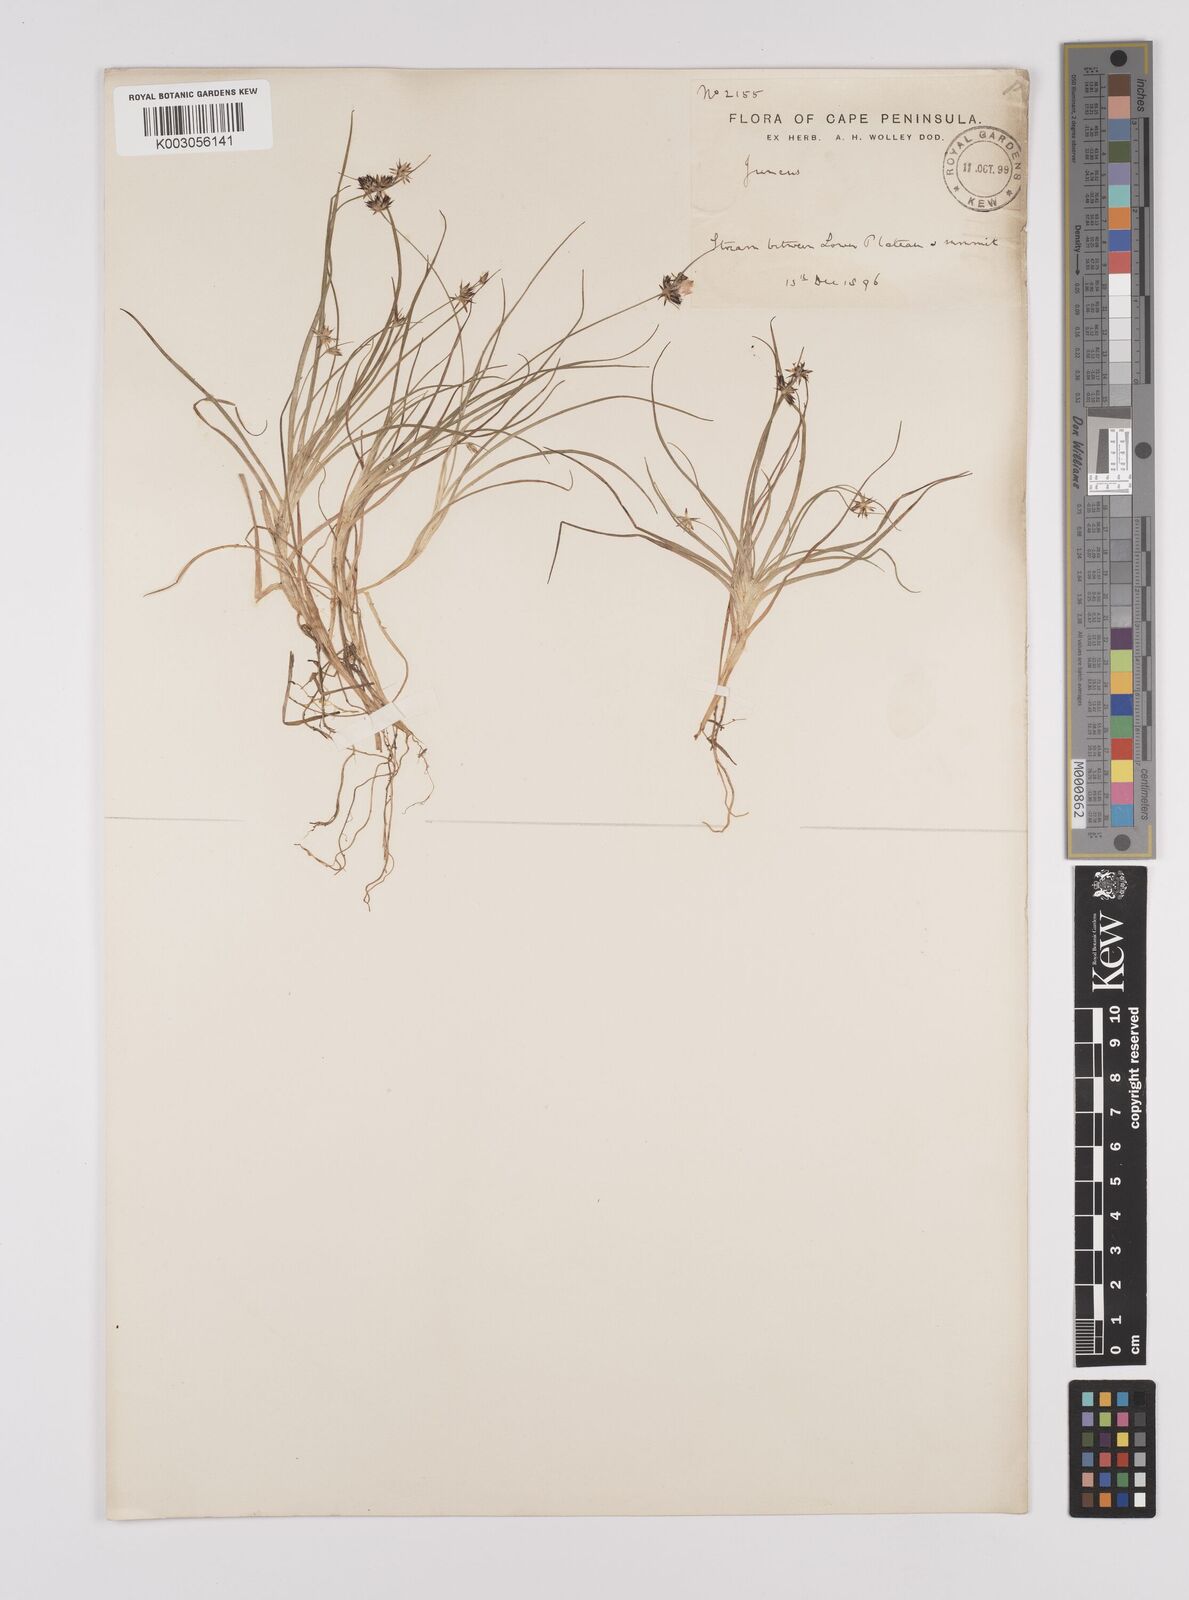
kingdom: Plantae
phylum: Tracheophyta
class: Liliopsida
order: Poales
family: Juncaceae
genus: Juncus
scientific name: Juncus
